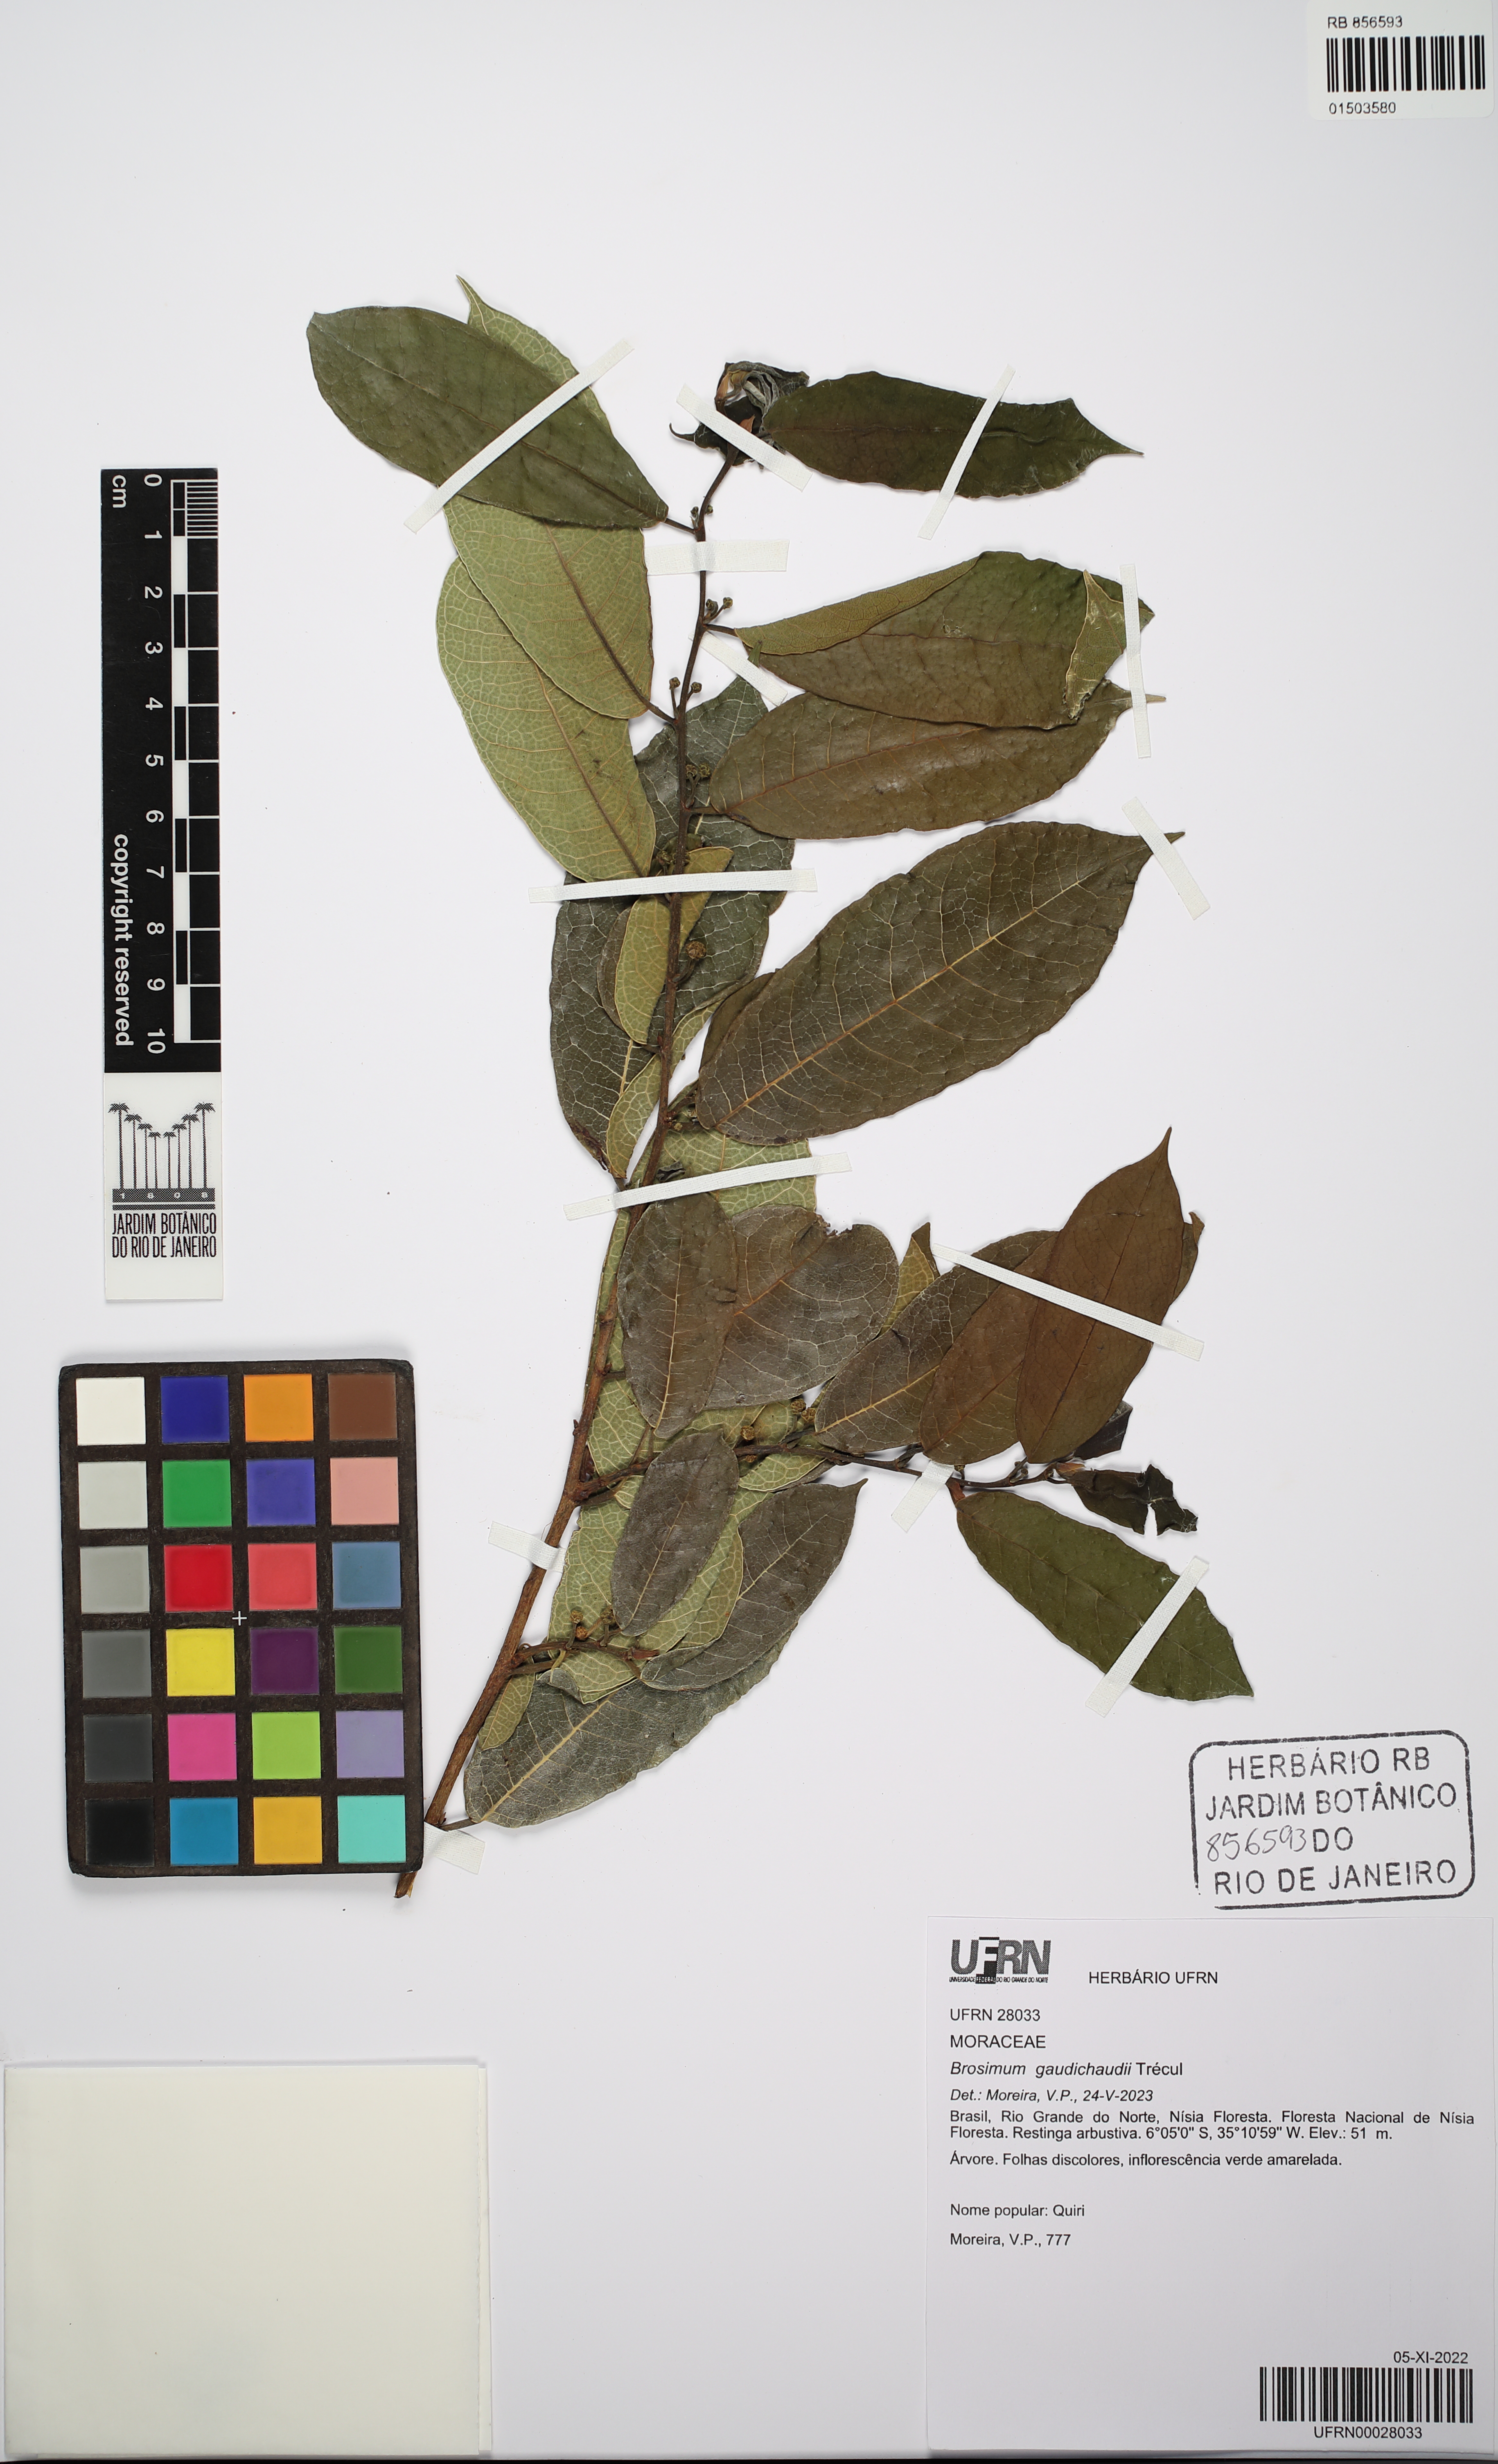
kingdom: Plantae
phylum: Tracheophyta
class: Magnoliopsida
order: Rosales
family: Moraceae
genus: Brosimum
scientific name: Brosimum gaudichaudii
